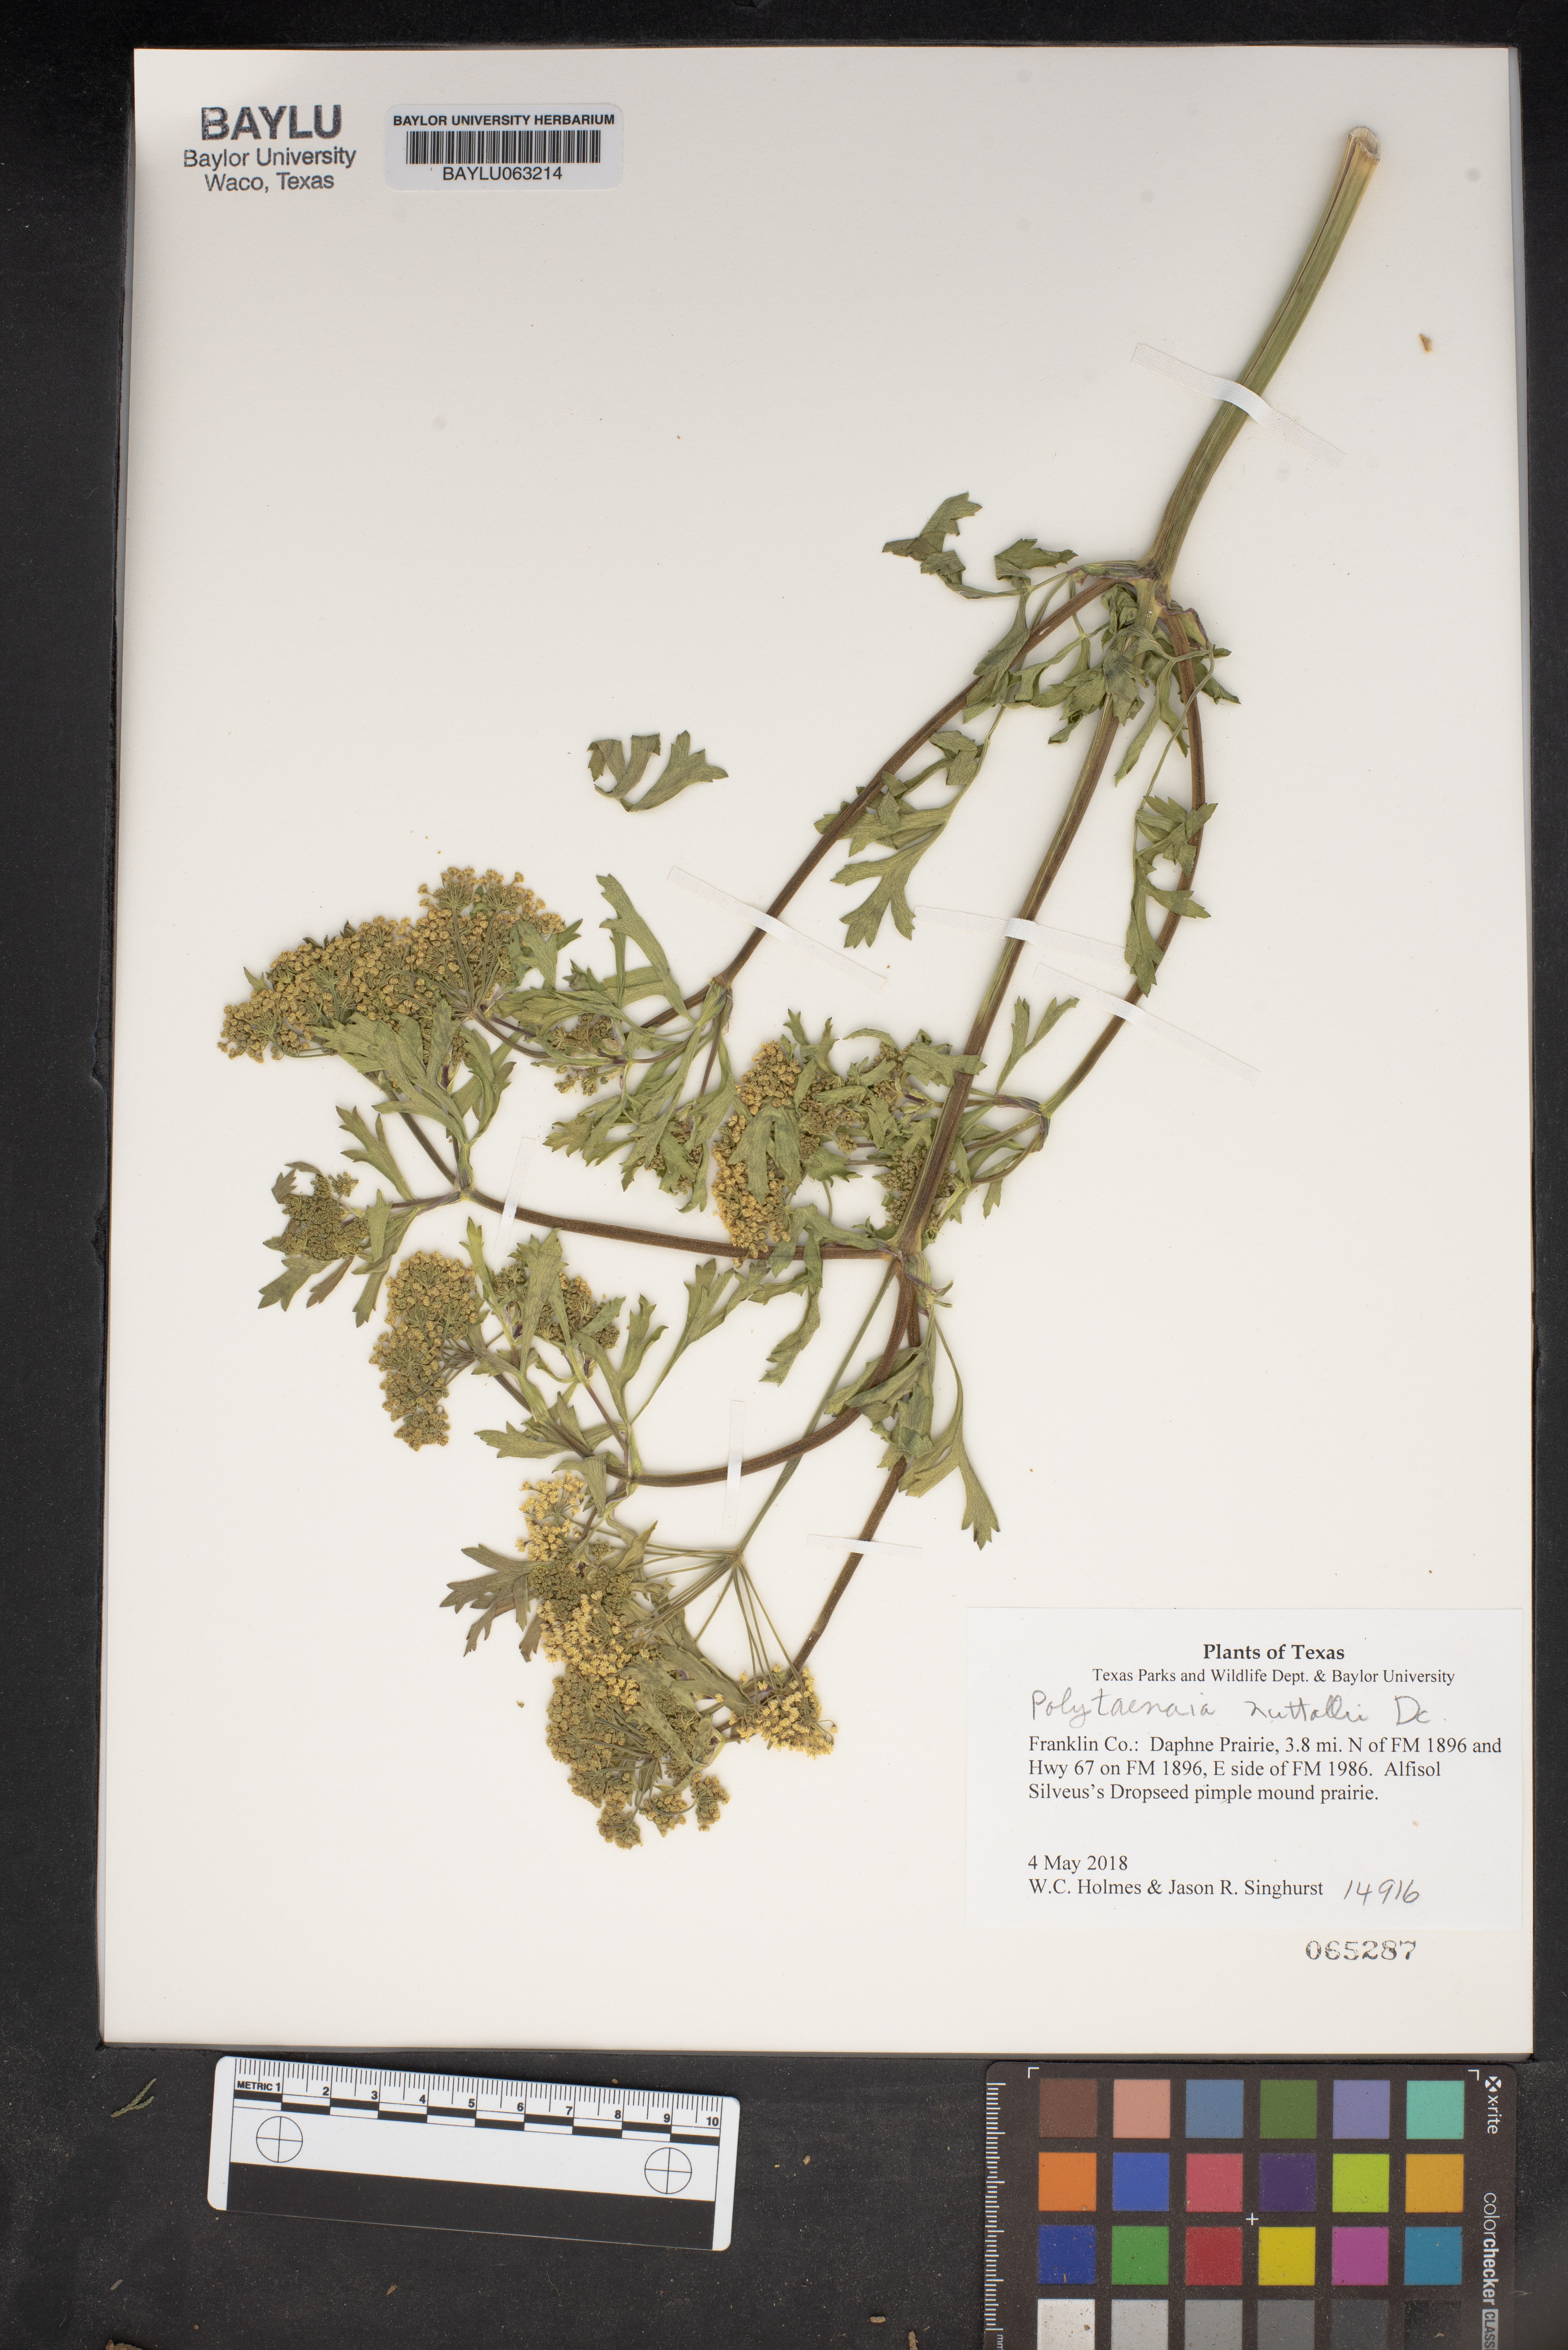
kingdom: Plantae
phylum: Tracheophyta
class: Magnoliopsida
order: Apiales
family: Apiaceae
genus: Polytaenia
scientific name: Polytaenia nuttallii
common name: Prairie-parsley
